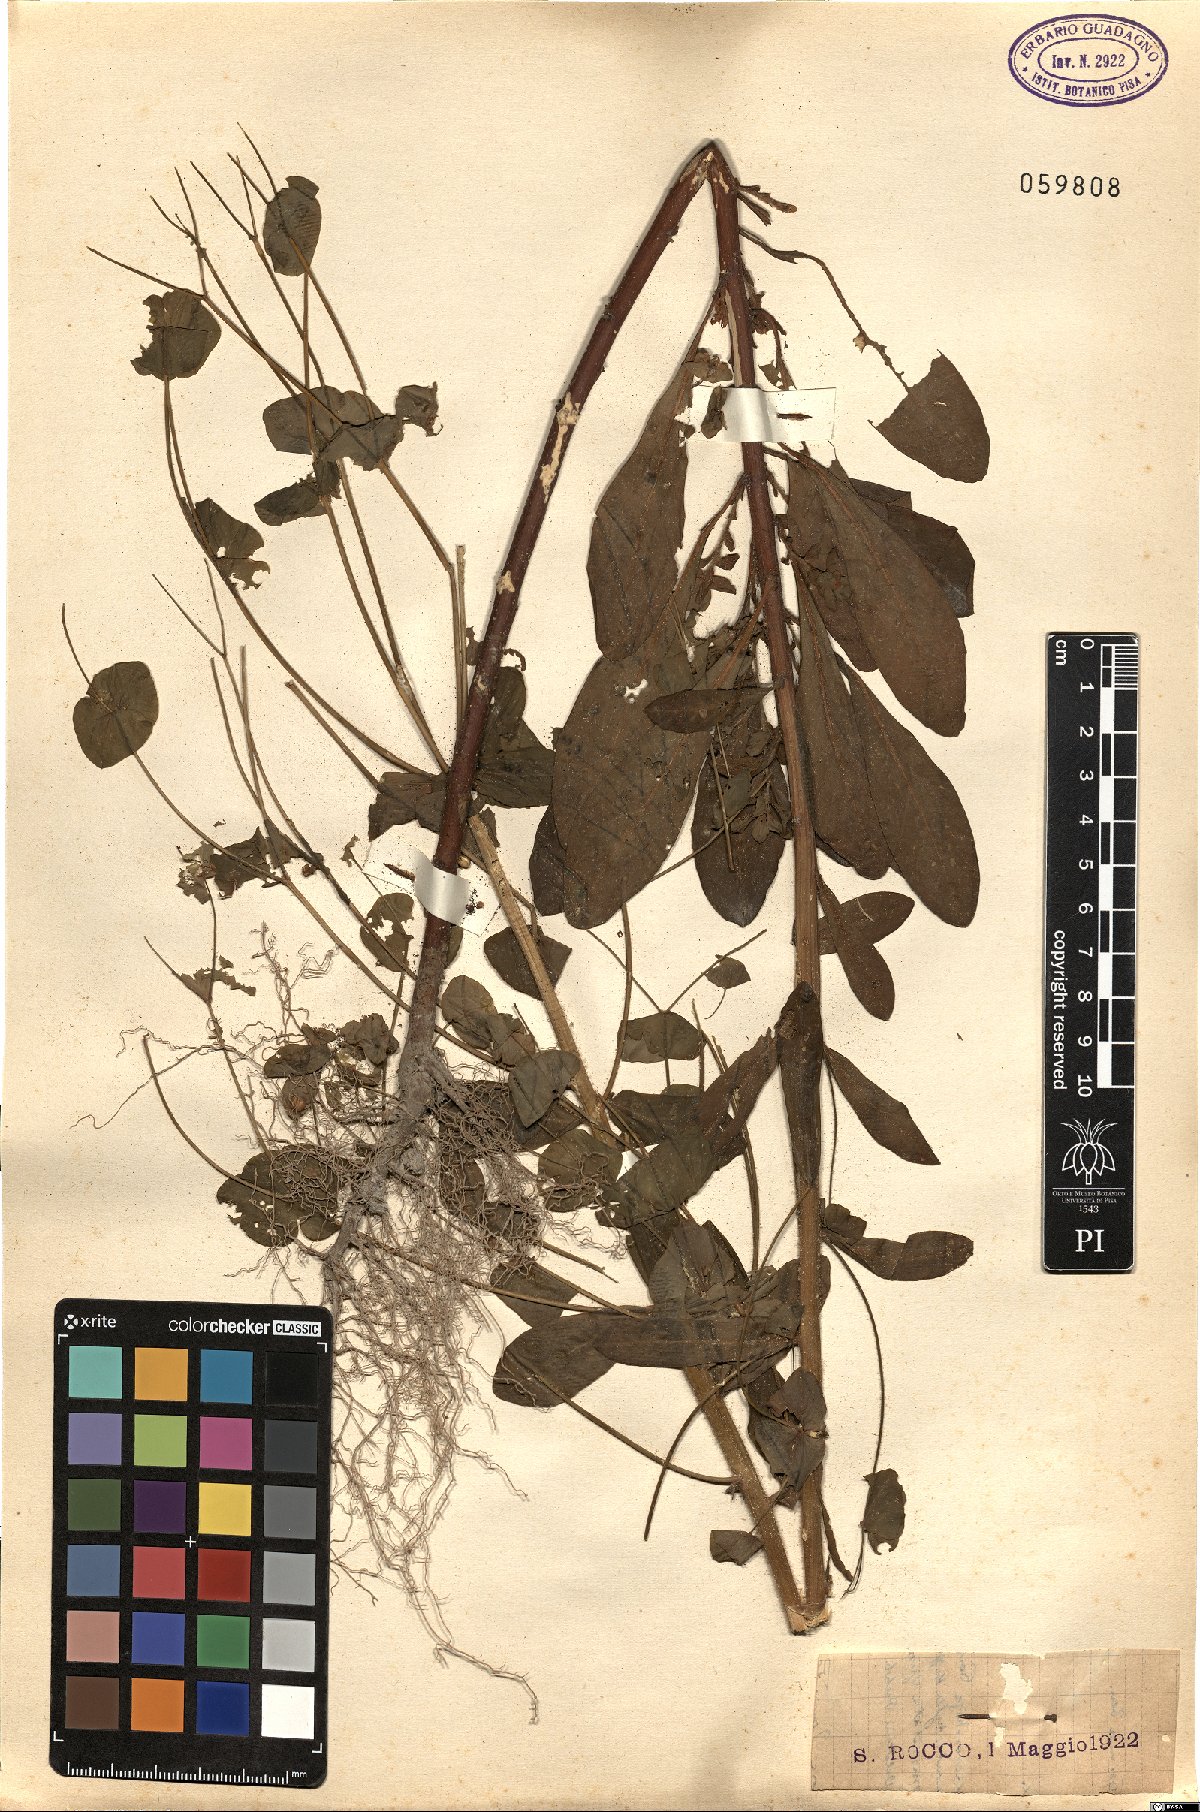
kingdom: Plantae
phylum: Tracheophyta
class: Magnoliopsida
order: Malpighiales
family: Euphorbiaceae
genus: Euphorbia
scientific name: Euphorbia
